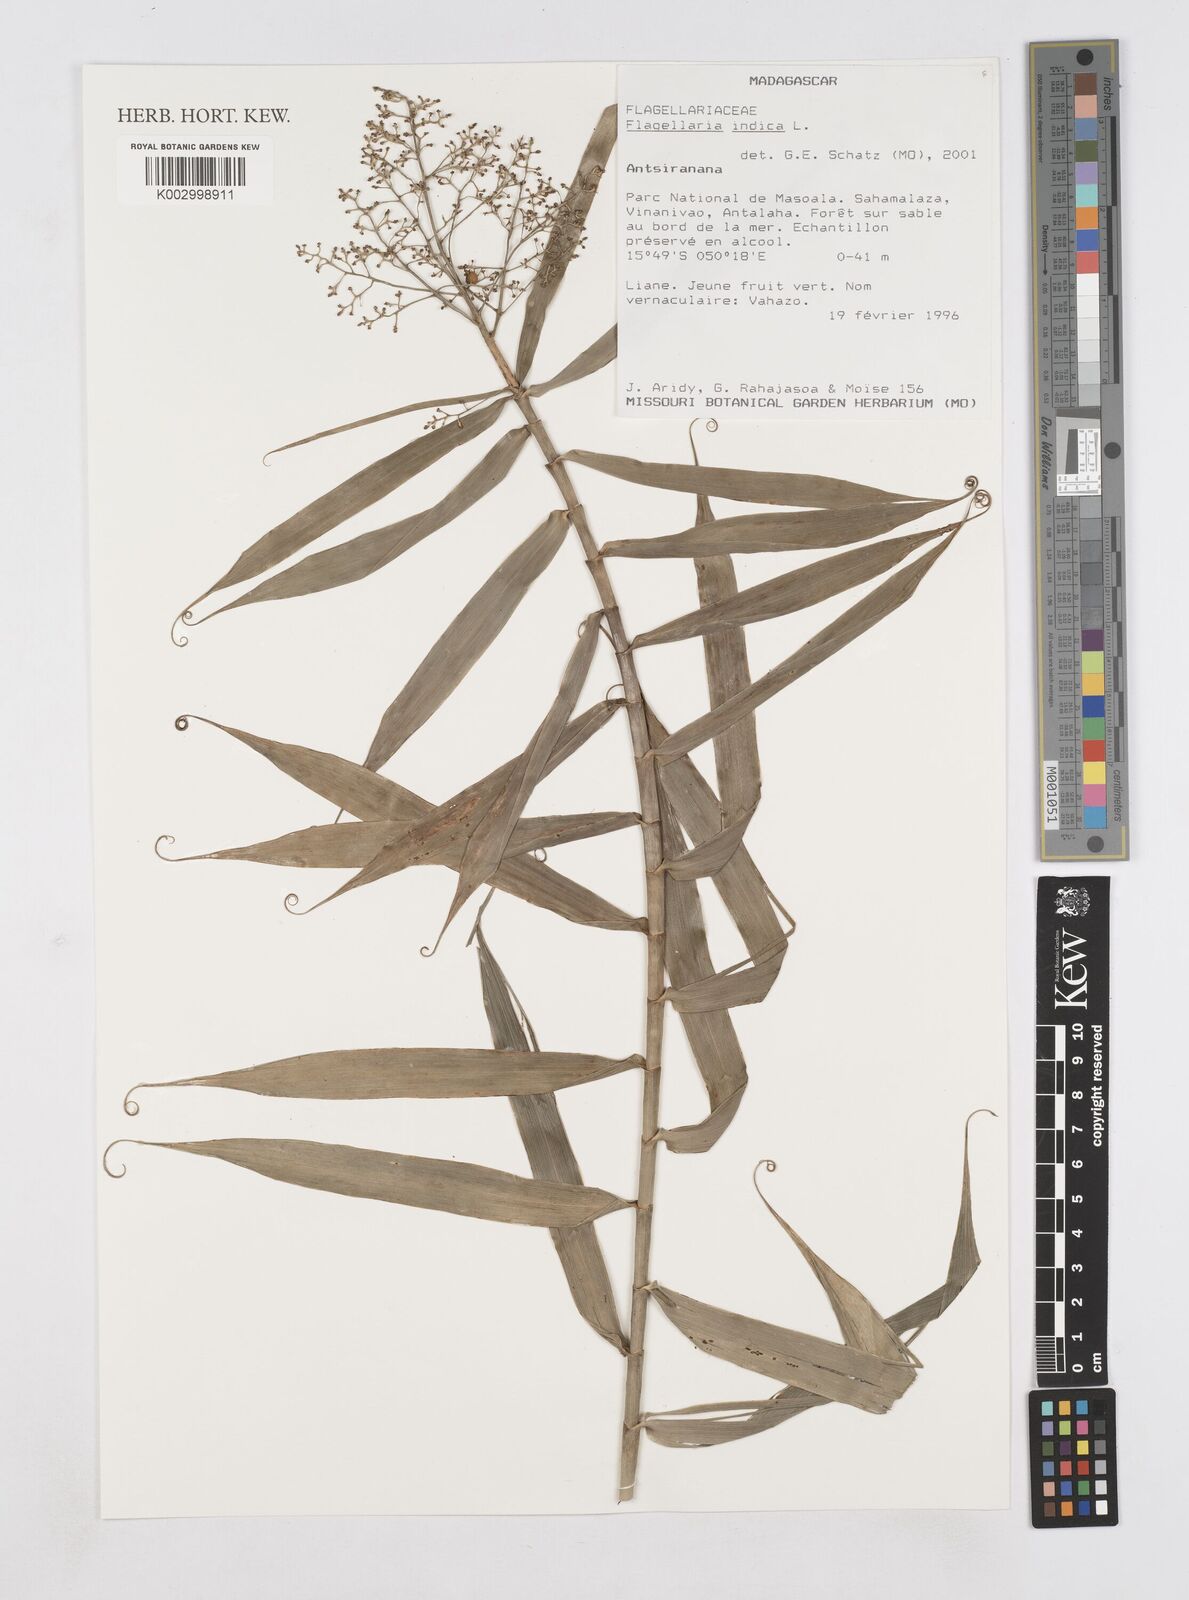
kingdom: Plantae
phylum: Tracheophyta
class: Liliopsida
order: Poales
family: Flagellariaceae
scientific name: Flagellariaceae
